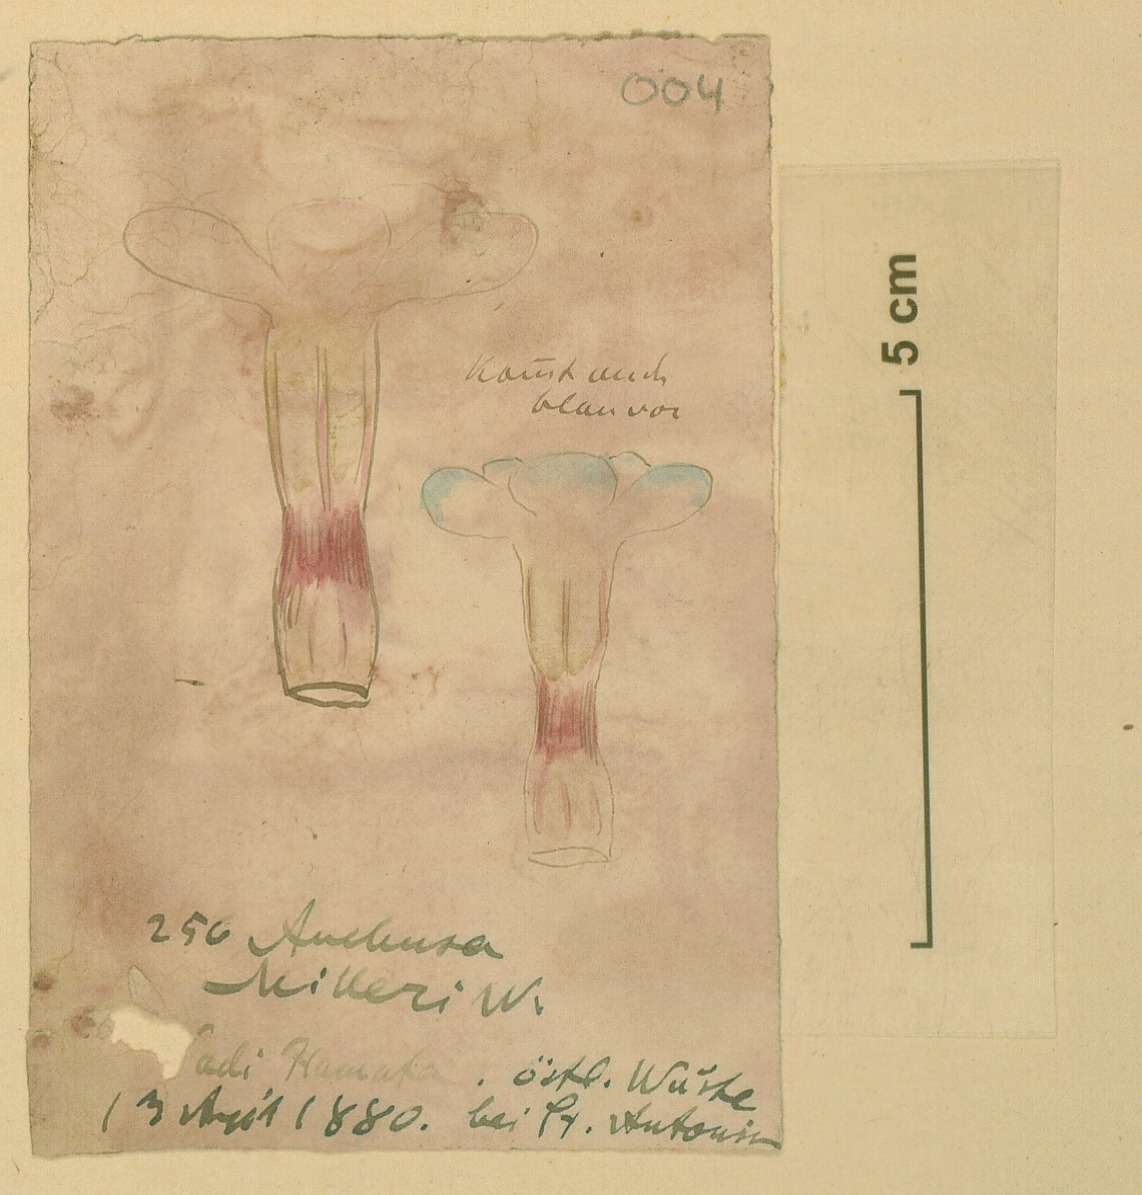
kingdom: Plantae
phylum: Tracheophyta
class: Magnoliopsida
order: Boraginales
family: Boraginaceae
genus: Anchusa
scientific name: Anchusa milleri
